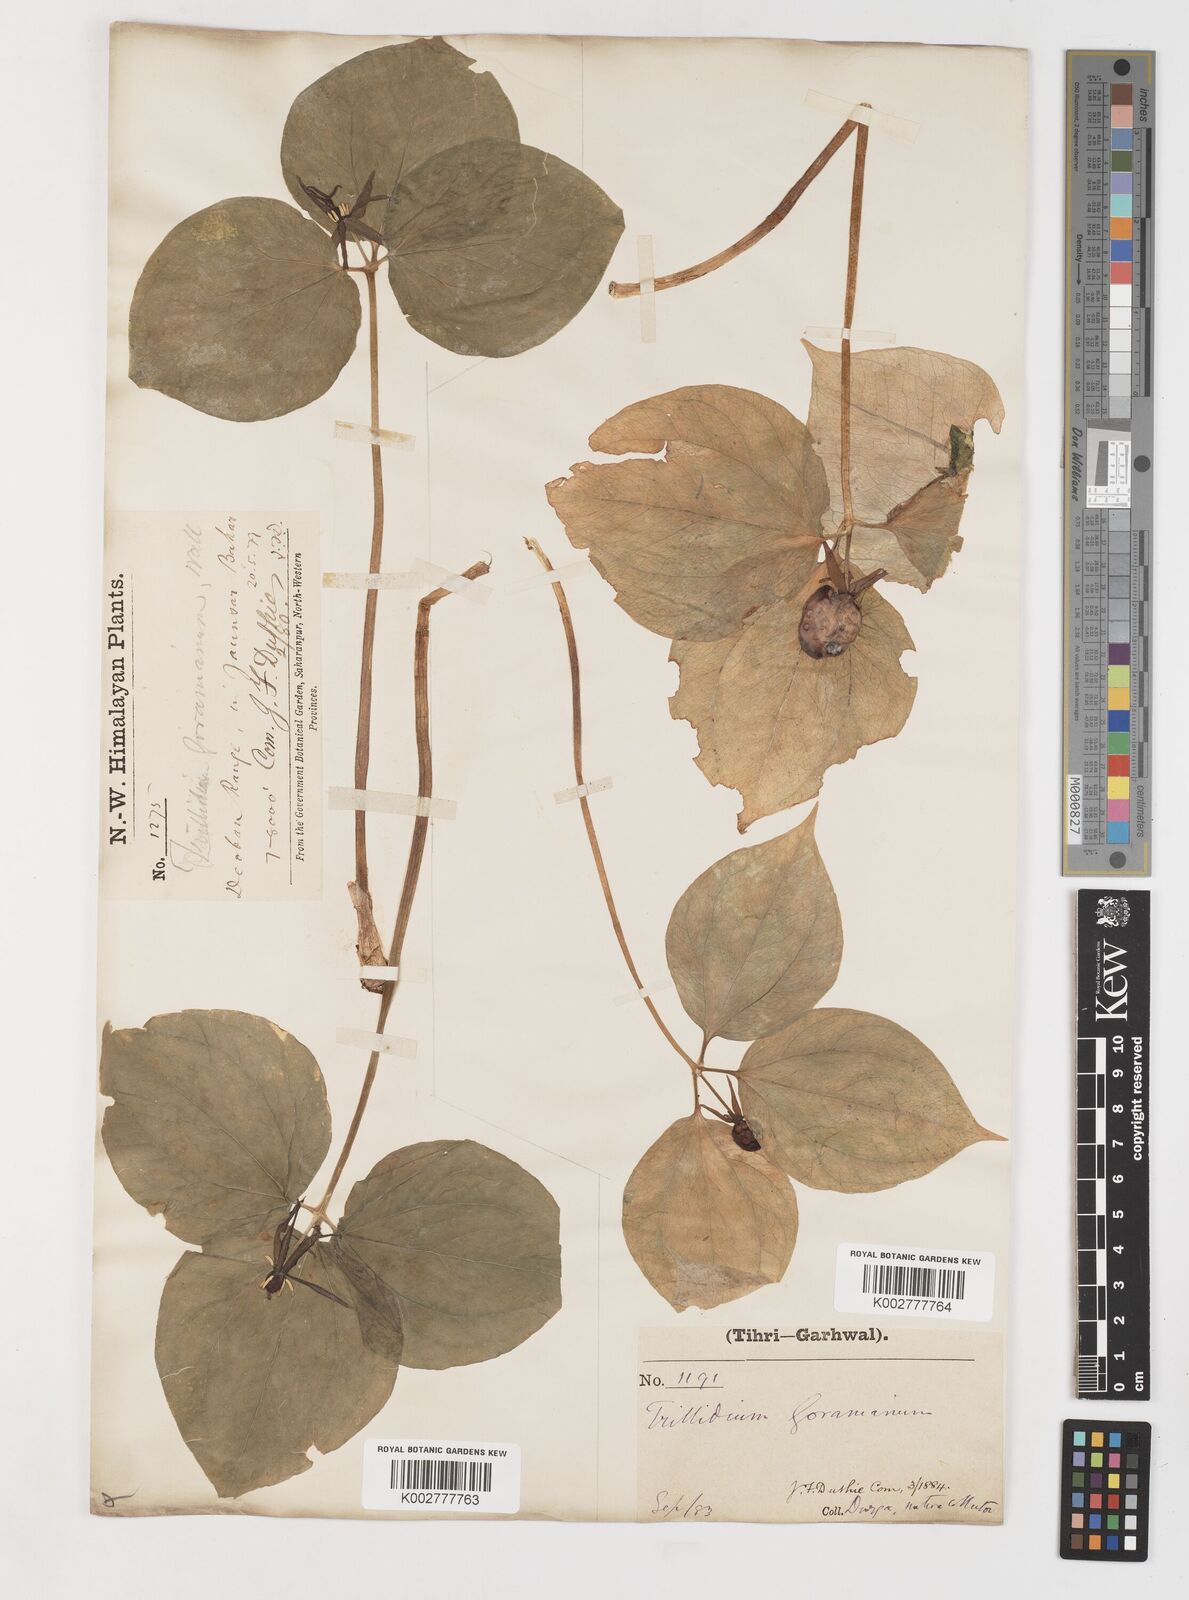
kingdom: Plantae
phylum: Tracheophyta
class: Liliopsida
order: Liliales
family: Melanthiaceae
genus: Trillium
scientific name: Trillium govanianum
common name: Himalayan trillium
